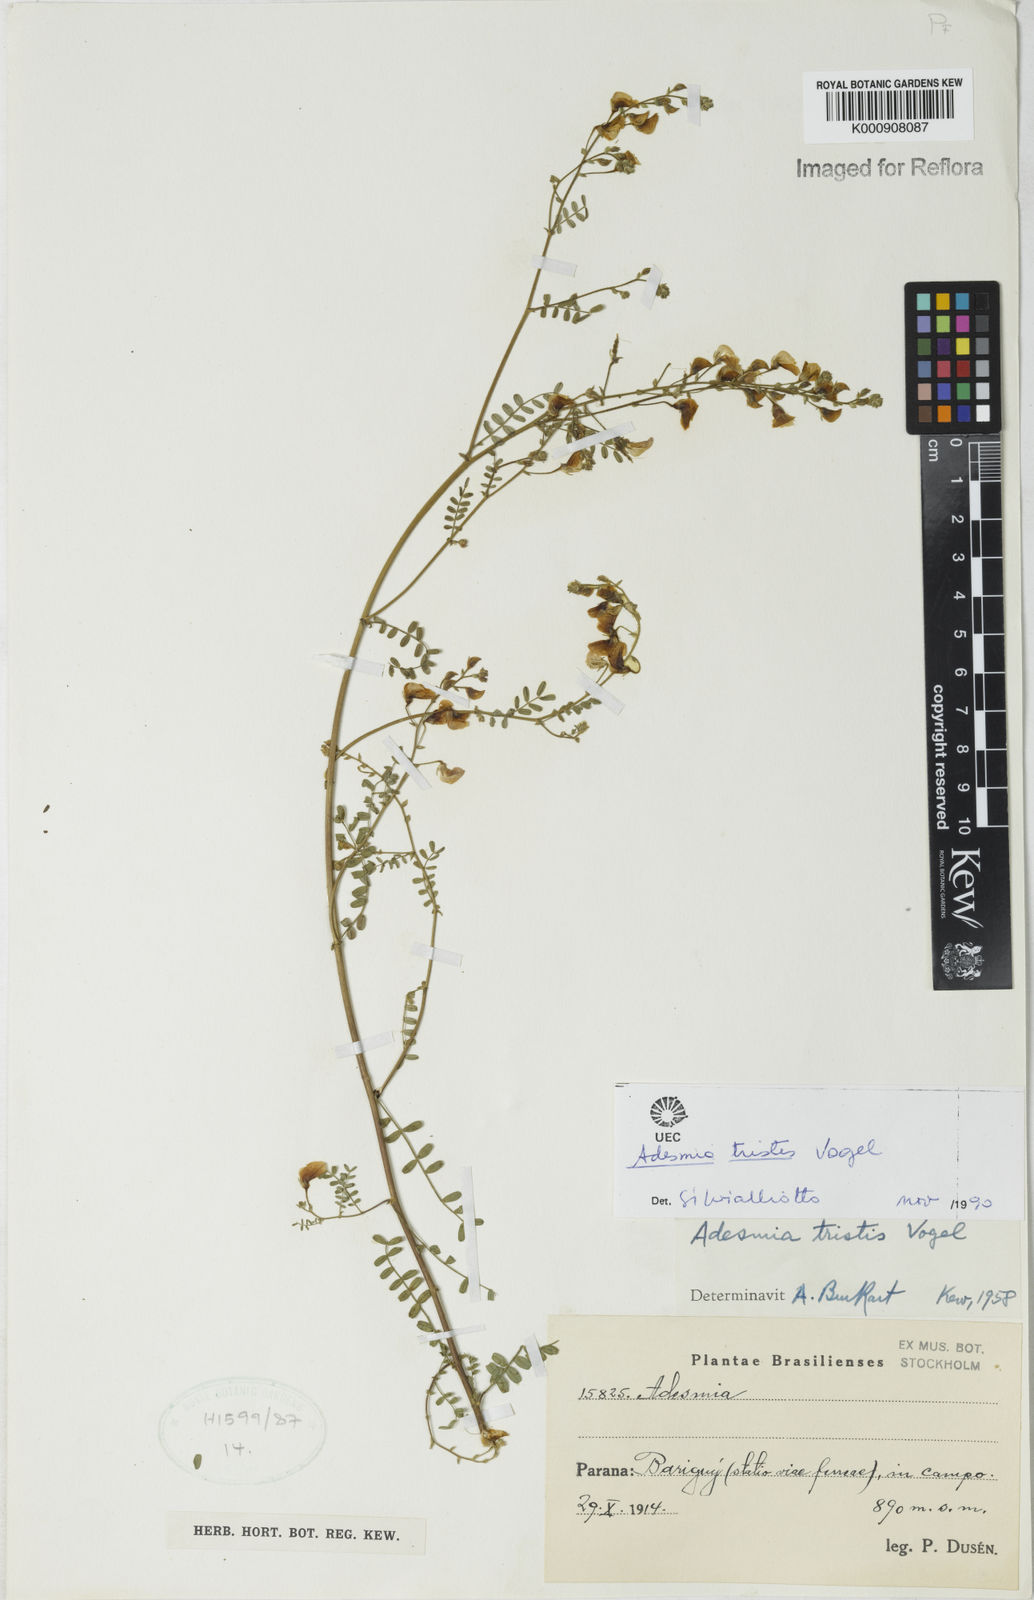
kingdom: Plantae
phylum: Tracheophyta
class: Magnoliopsida
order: Fabales
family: Fabaceae
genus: Adesmia
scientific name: Adesmia tristis
